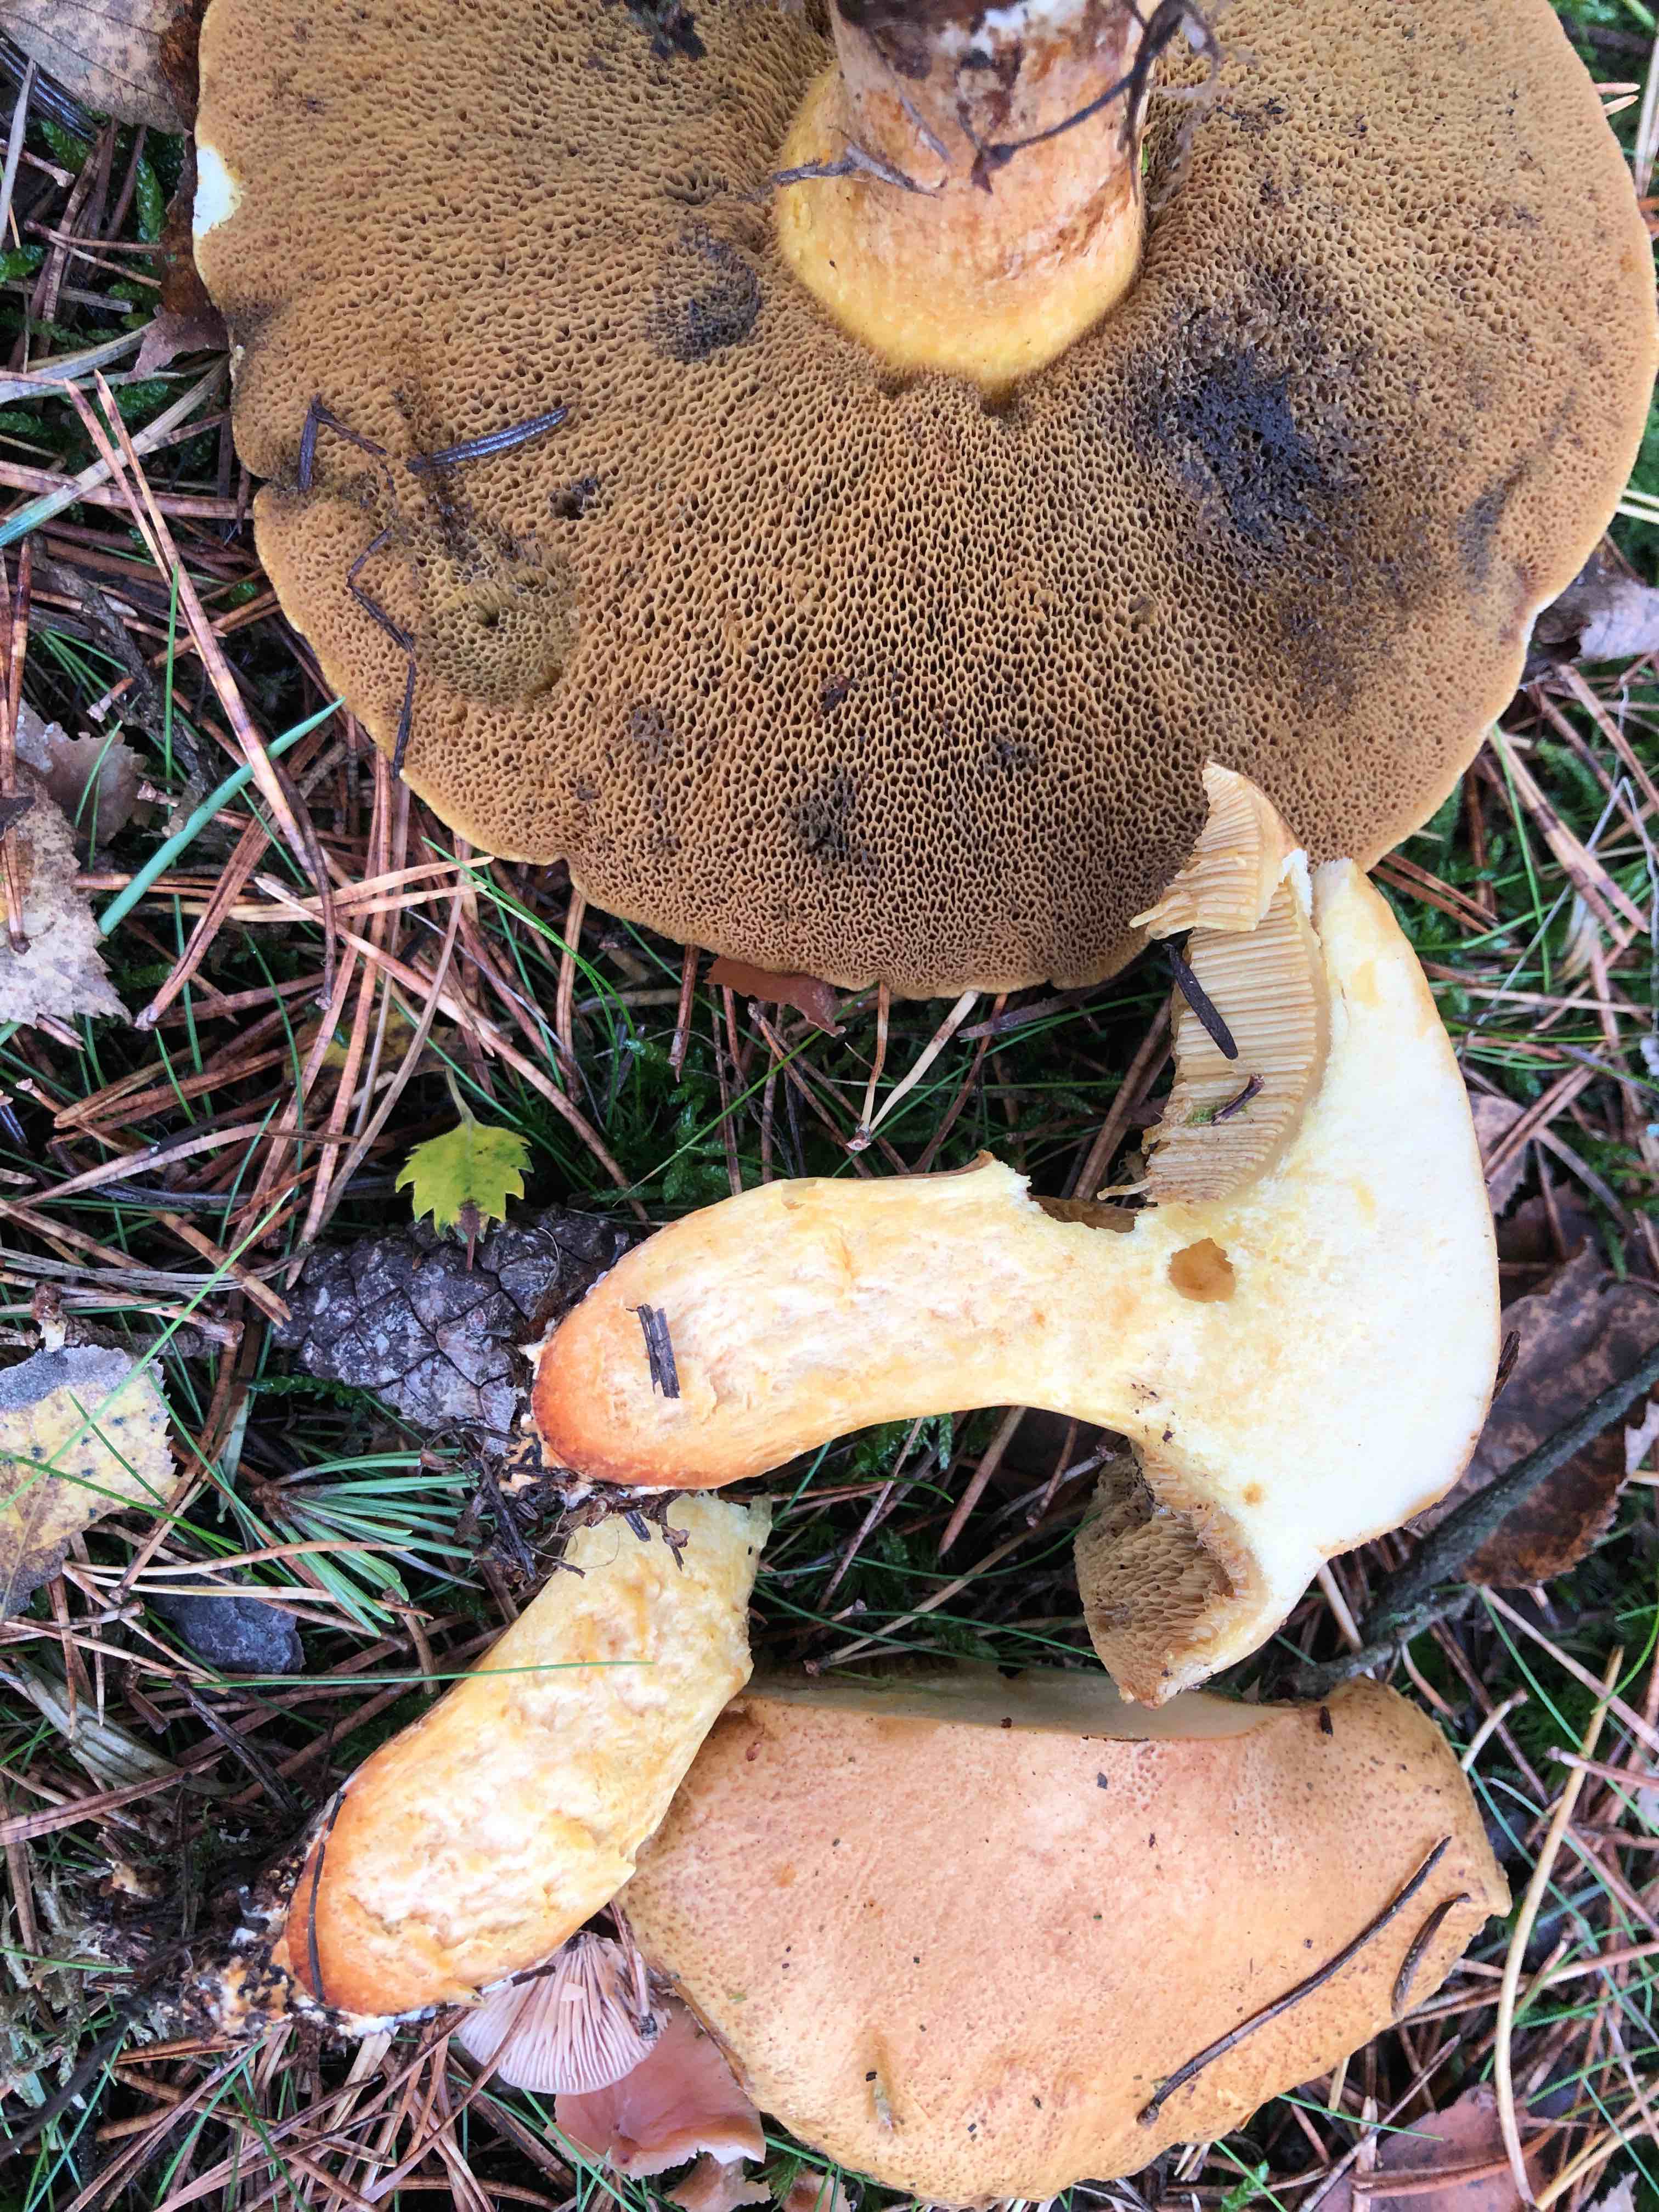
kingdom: Fungi
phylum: Basidiomycota
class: Agaricomycetes
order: Boletales
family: Suillaceae
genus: Suillus
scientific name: Suillus variegatus
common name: broget slimrørhat
